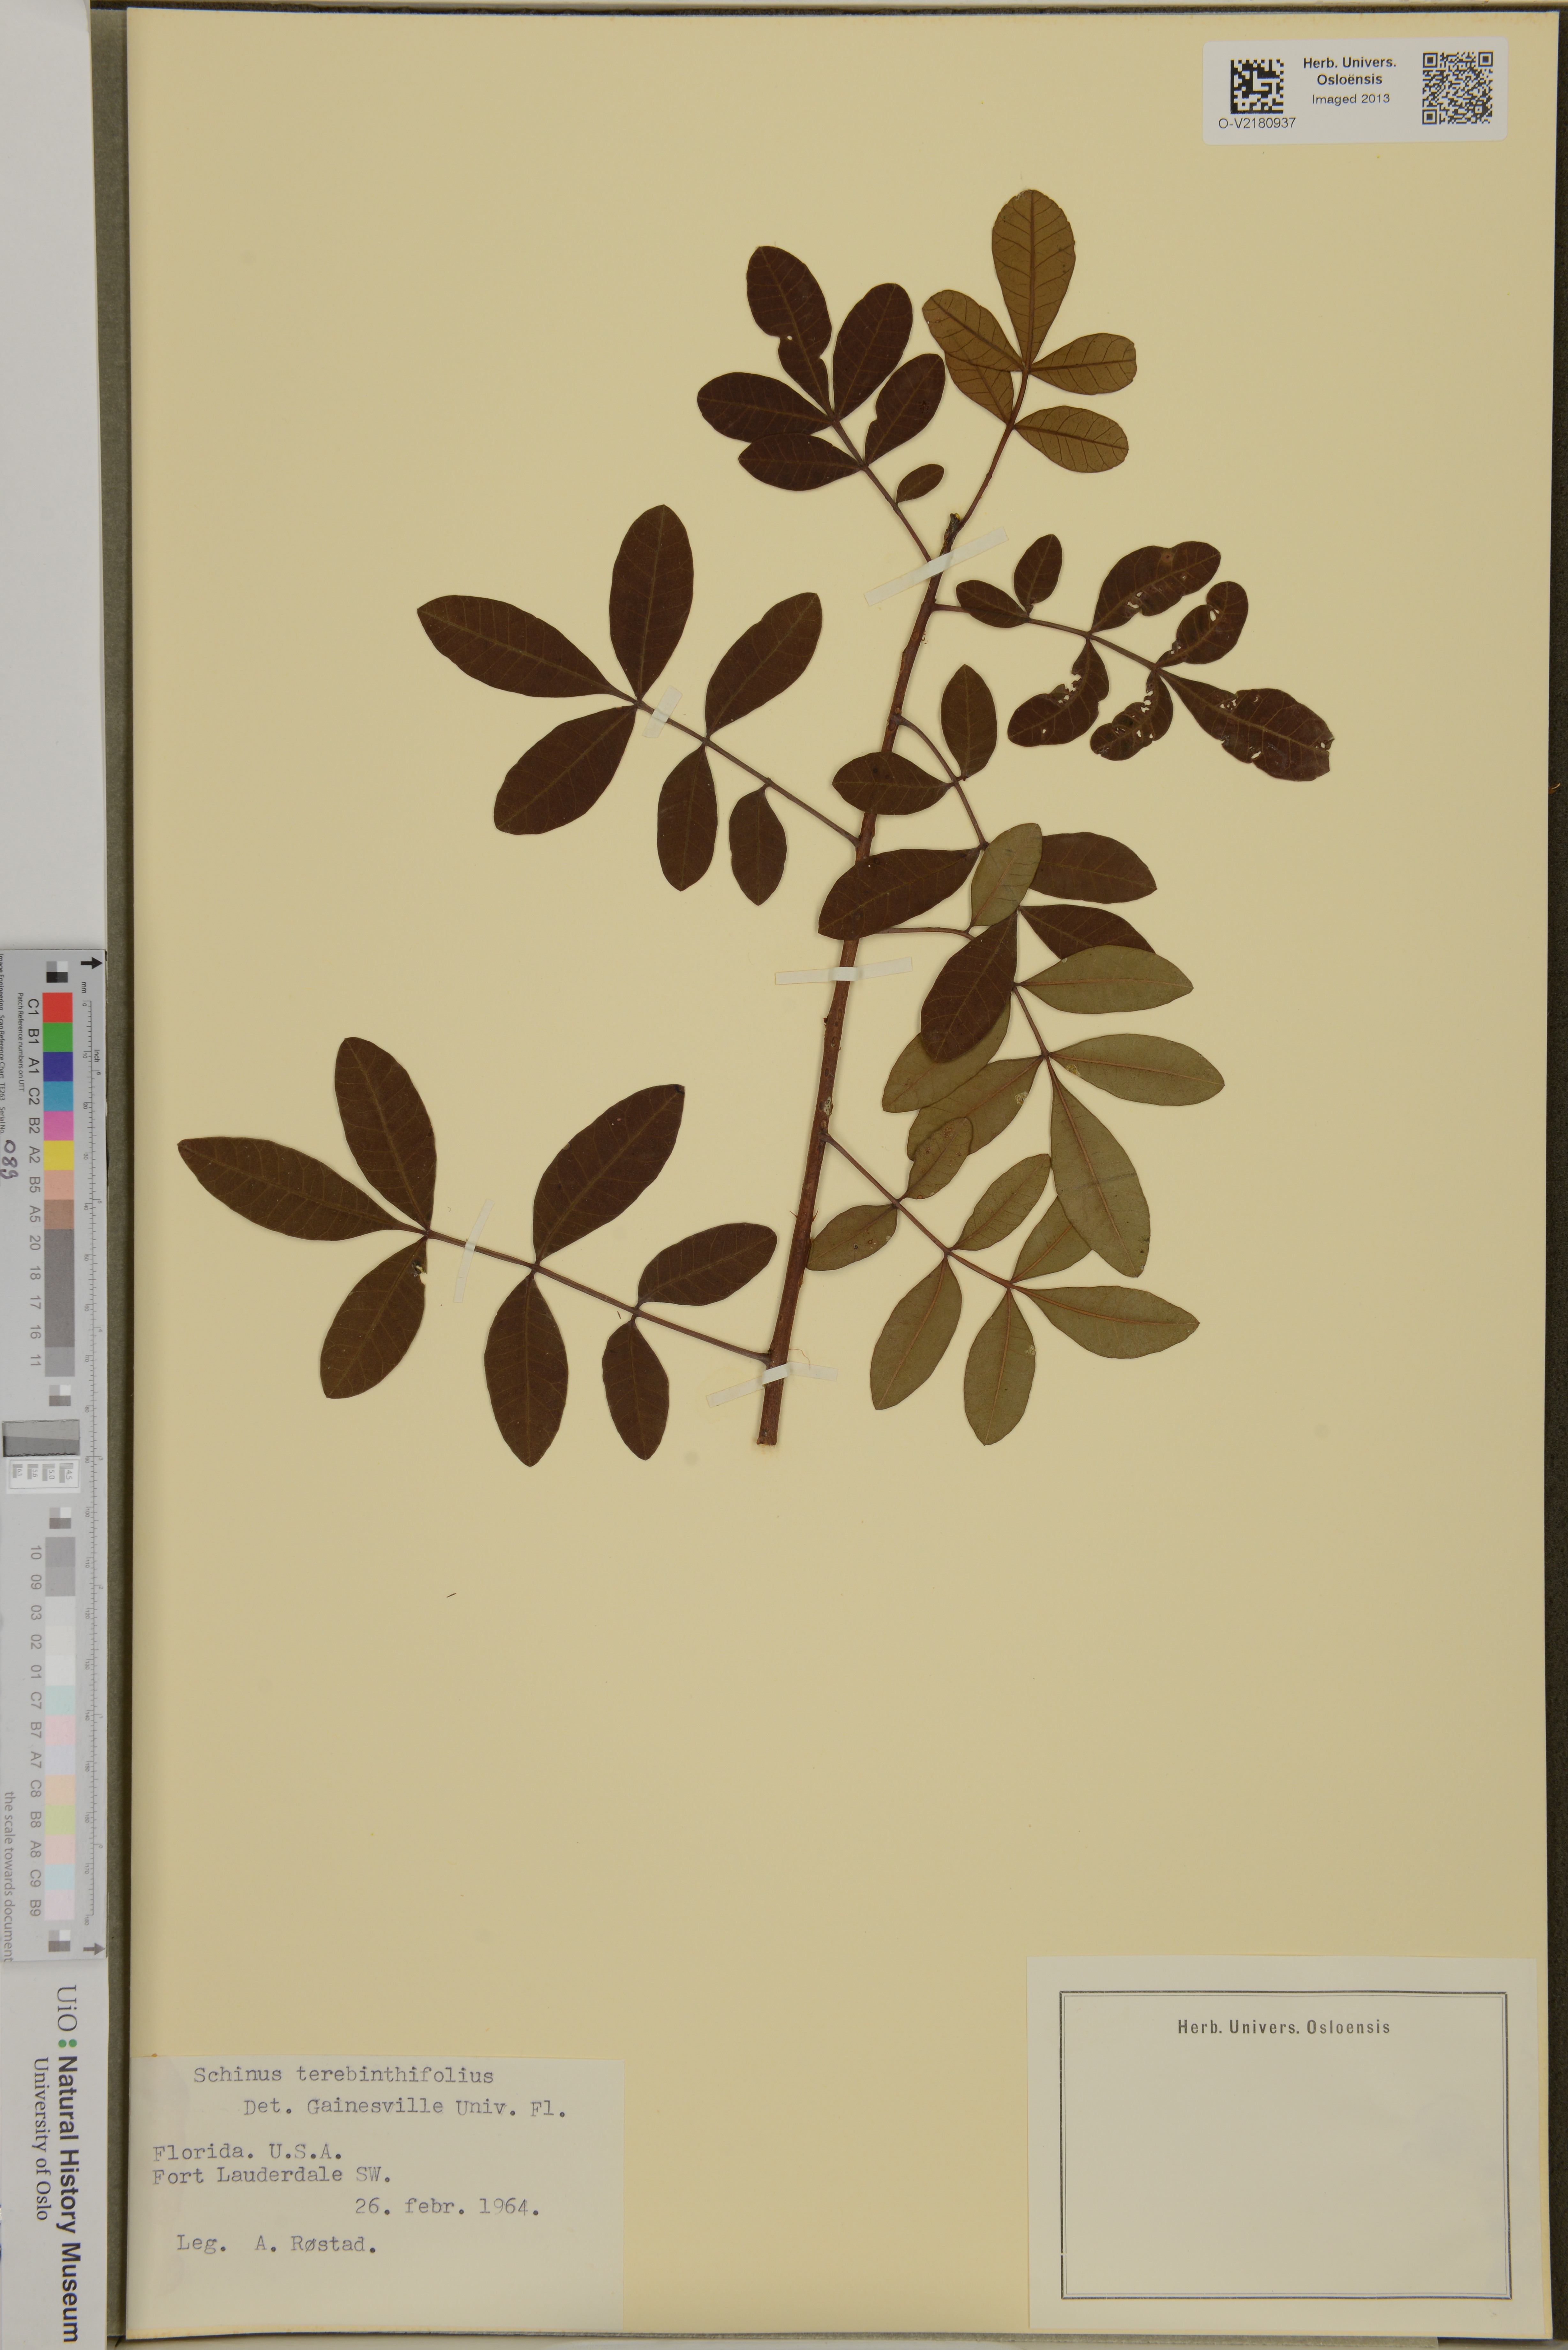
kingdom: Plantae
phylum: Tracheophyta
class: Magnoliopsida
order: Sapindales
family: Anacardiaceae
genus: Schinus
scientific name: Schinus terebinthifolia
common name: Brazilian peppertree
